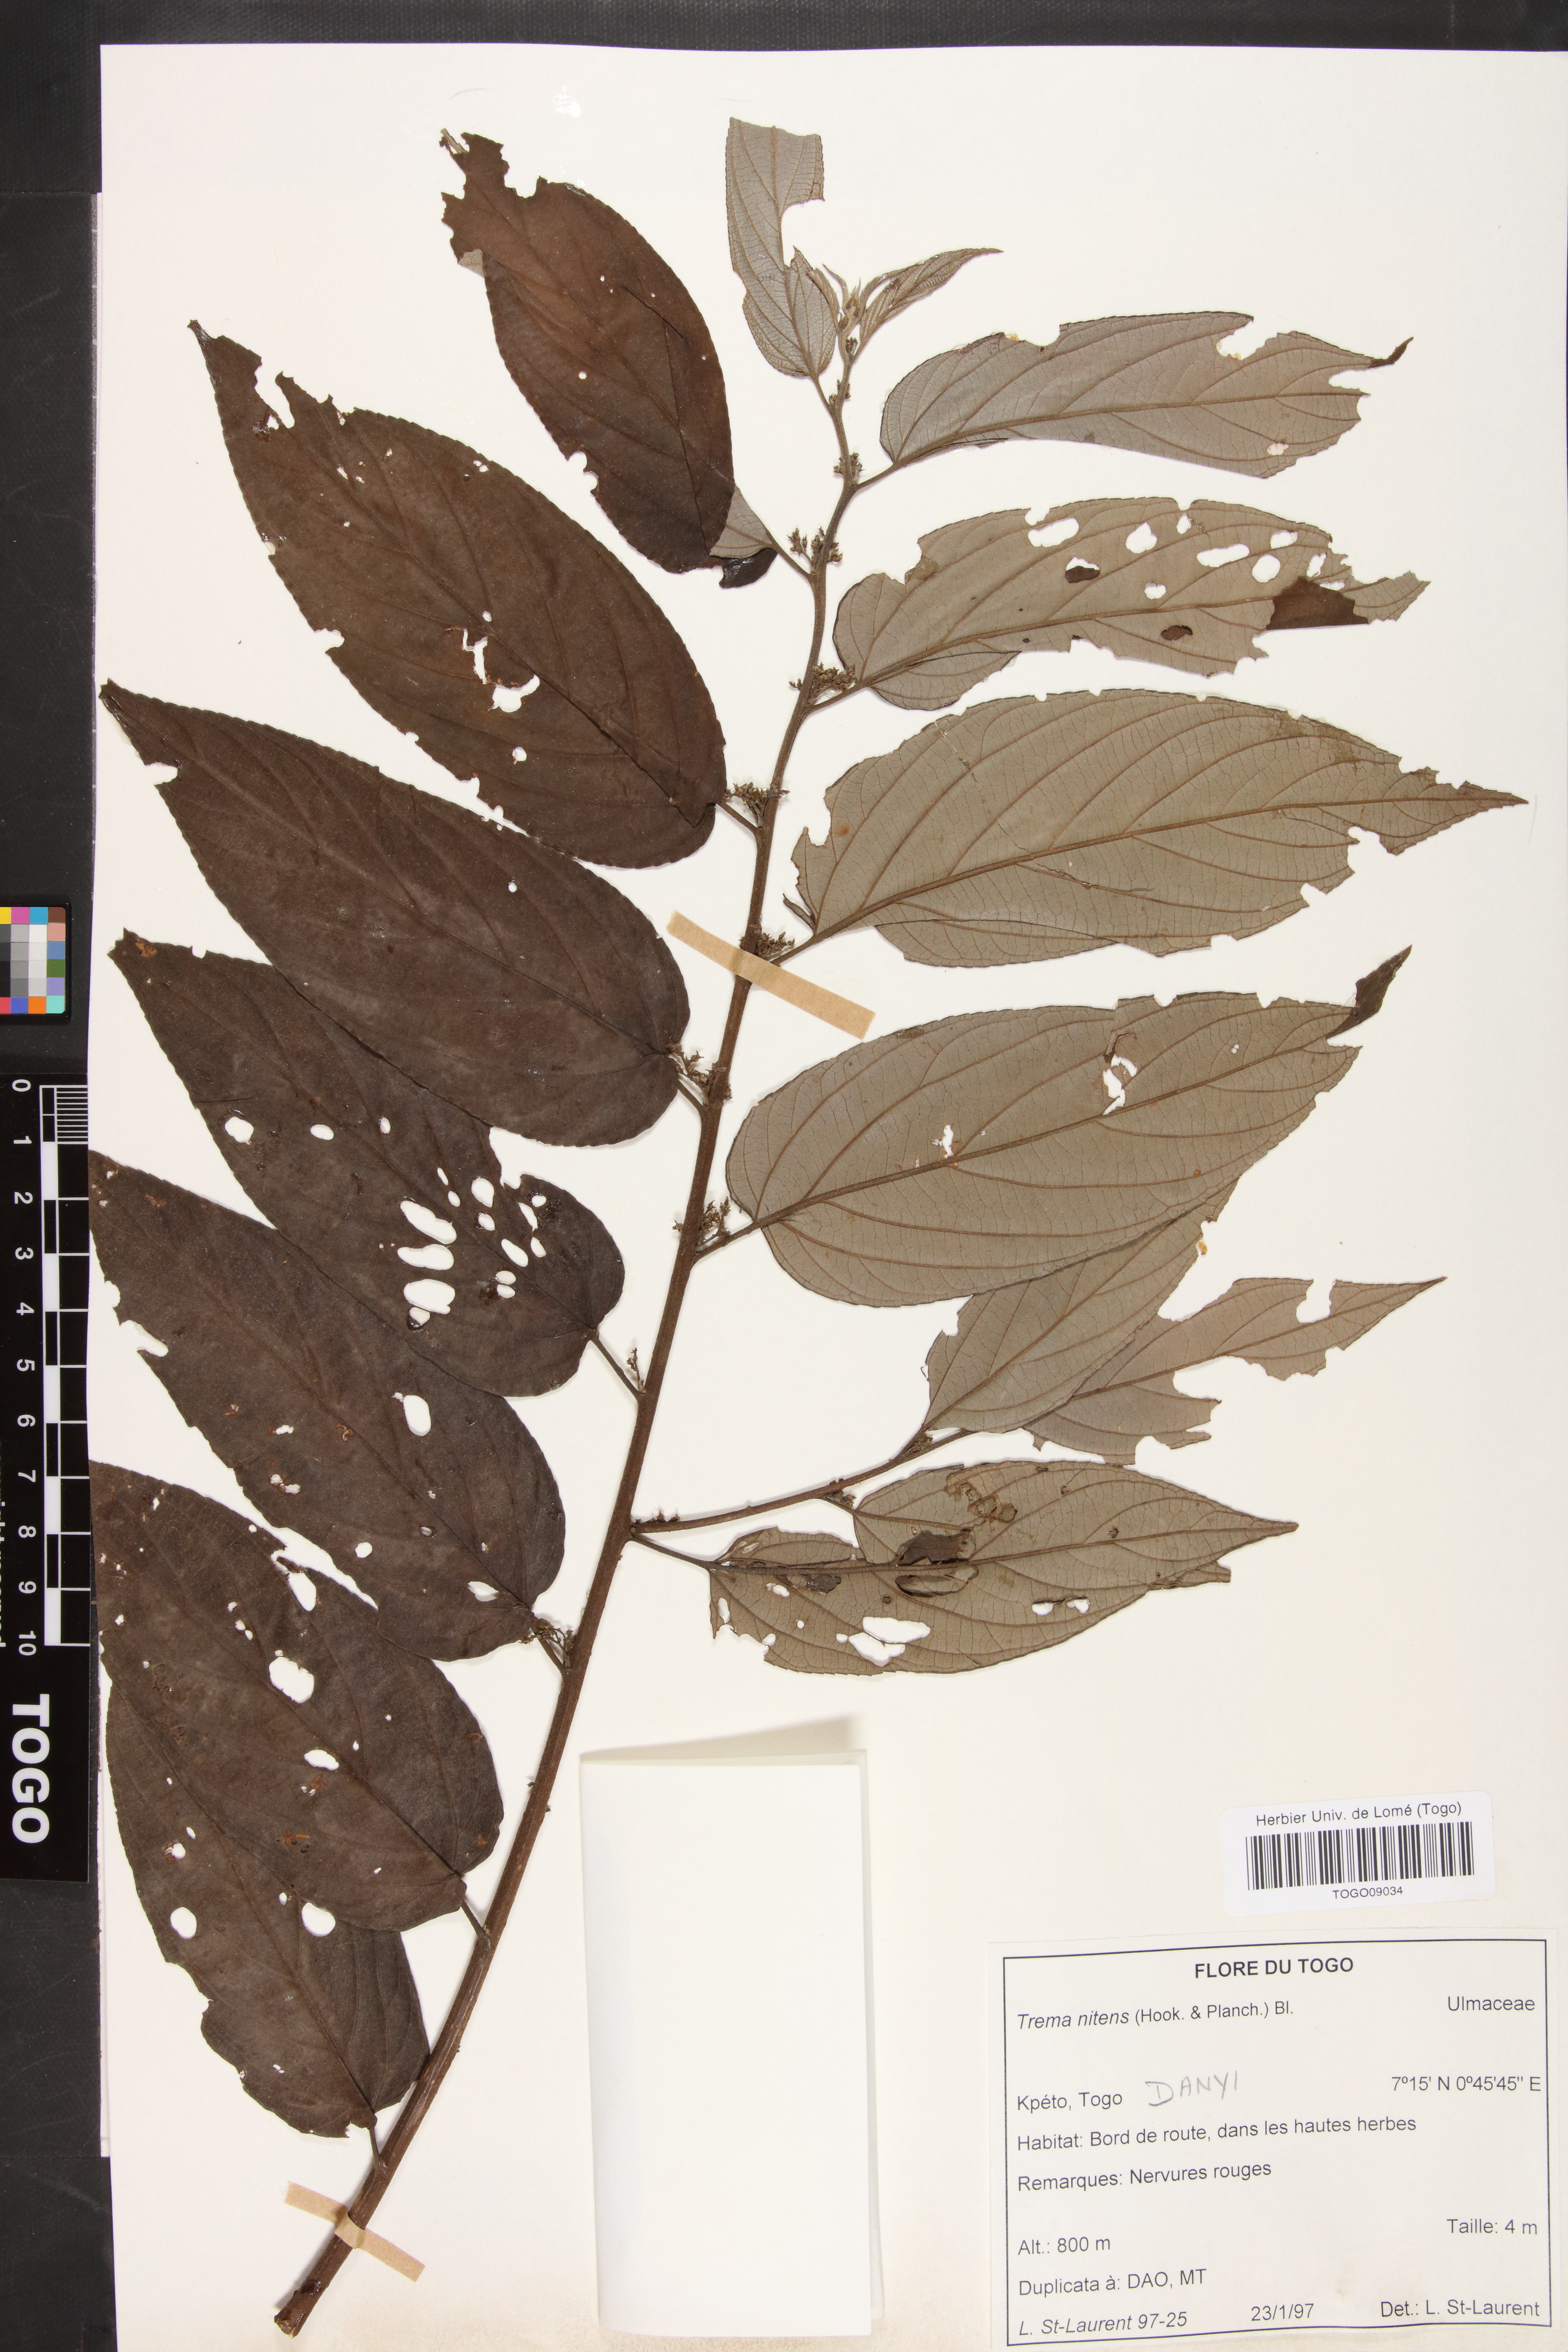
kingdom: Plantae
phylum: Tracheophyta
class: Magnoliopsida
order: Rosales
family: Cannabaceae
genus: Trema
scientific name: Trema orientale
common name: Indian charcoal tree
